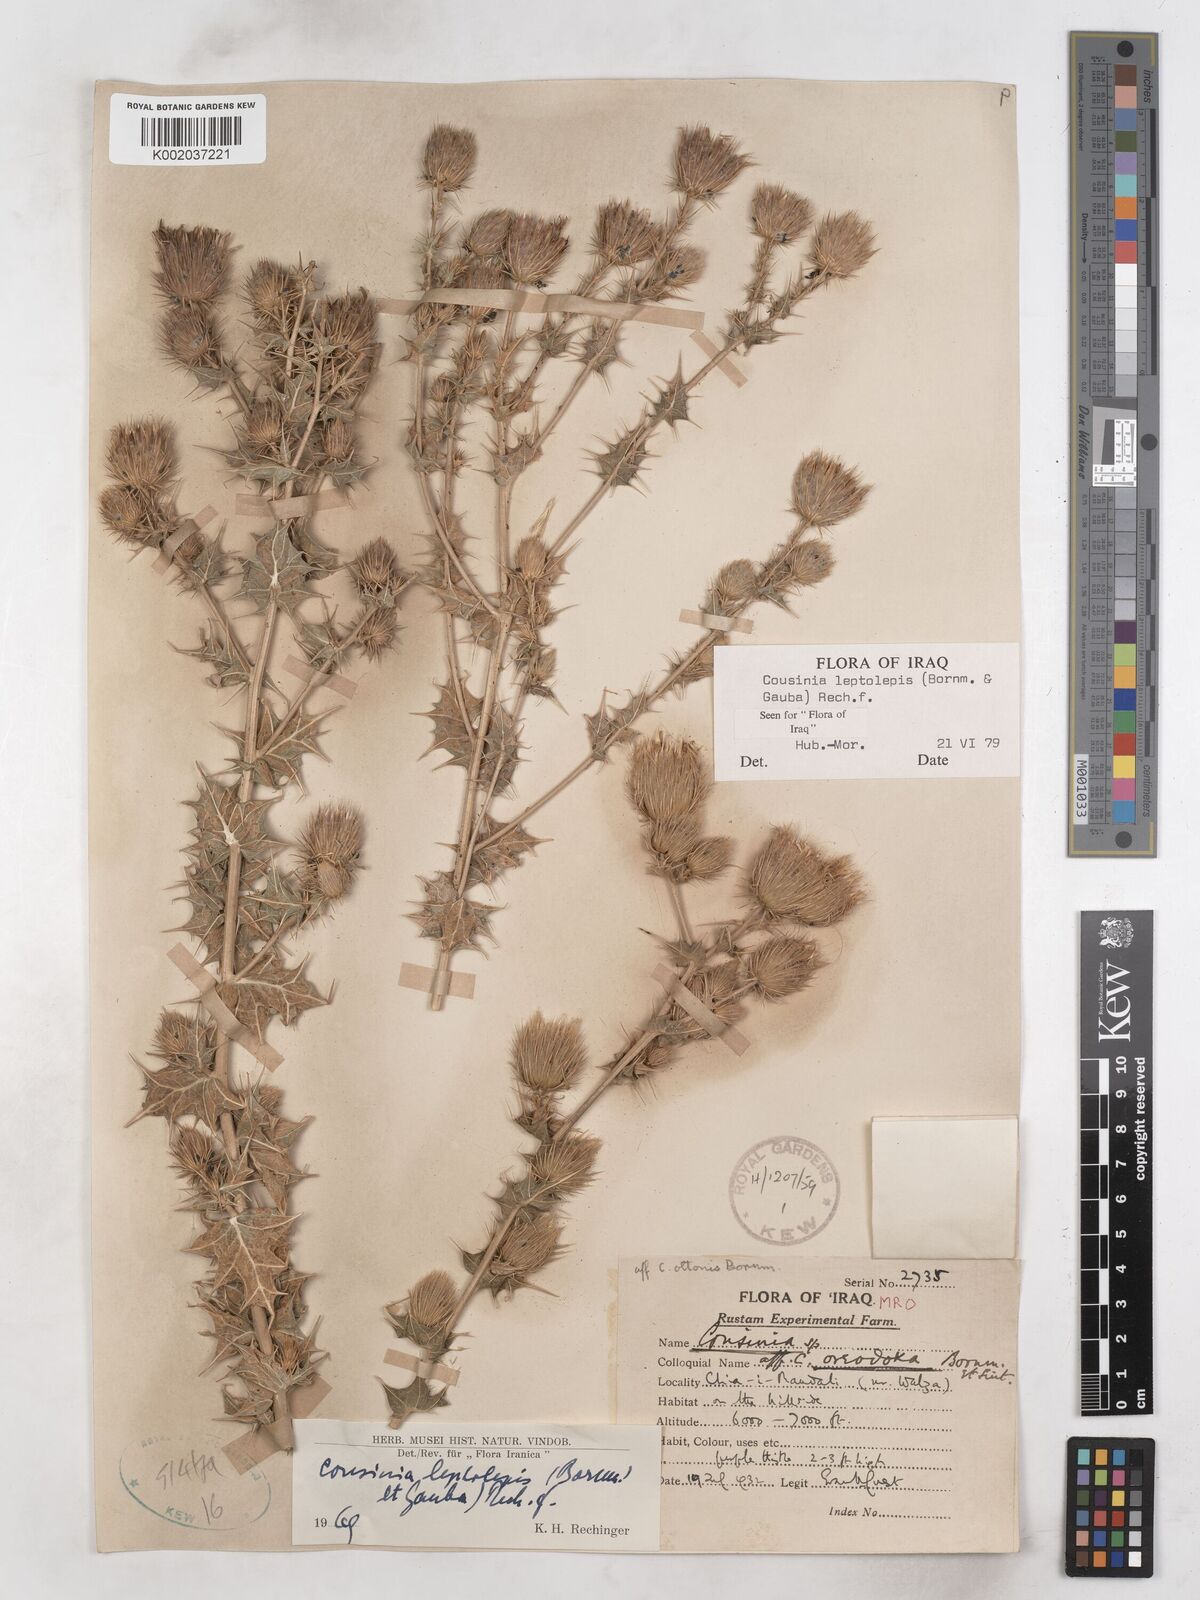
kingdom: Plantae
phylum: Tracheophyta
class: Magnoliopsida
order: Asterales
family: Asteraceae
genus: Cousinia
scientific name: Cousinia leptolepis
